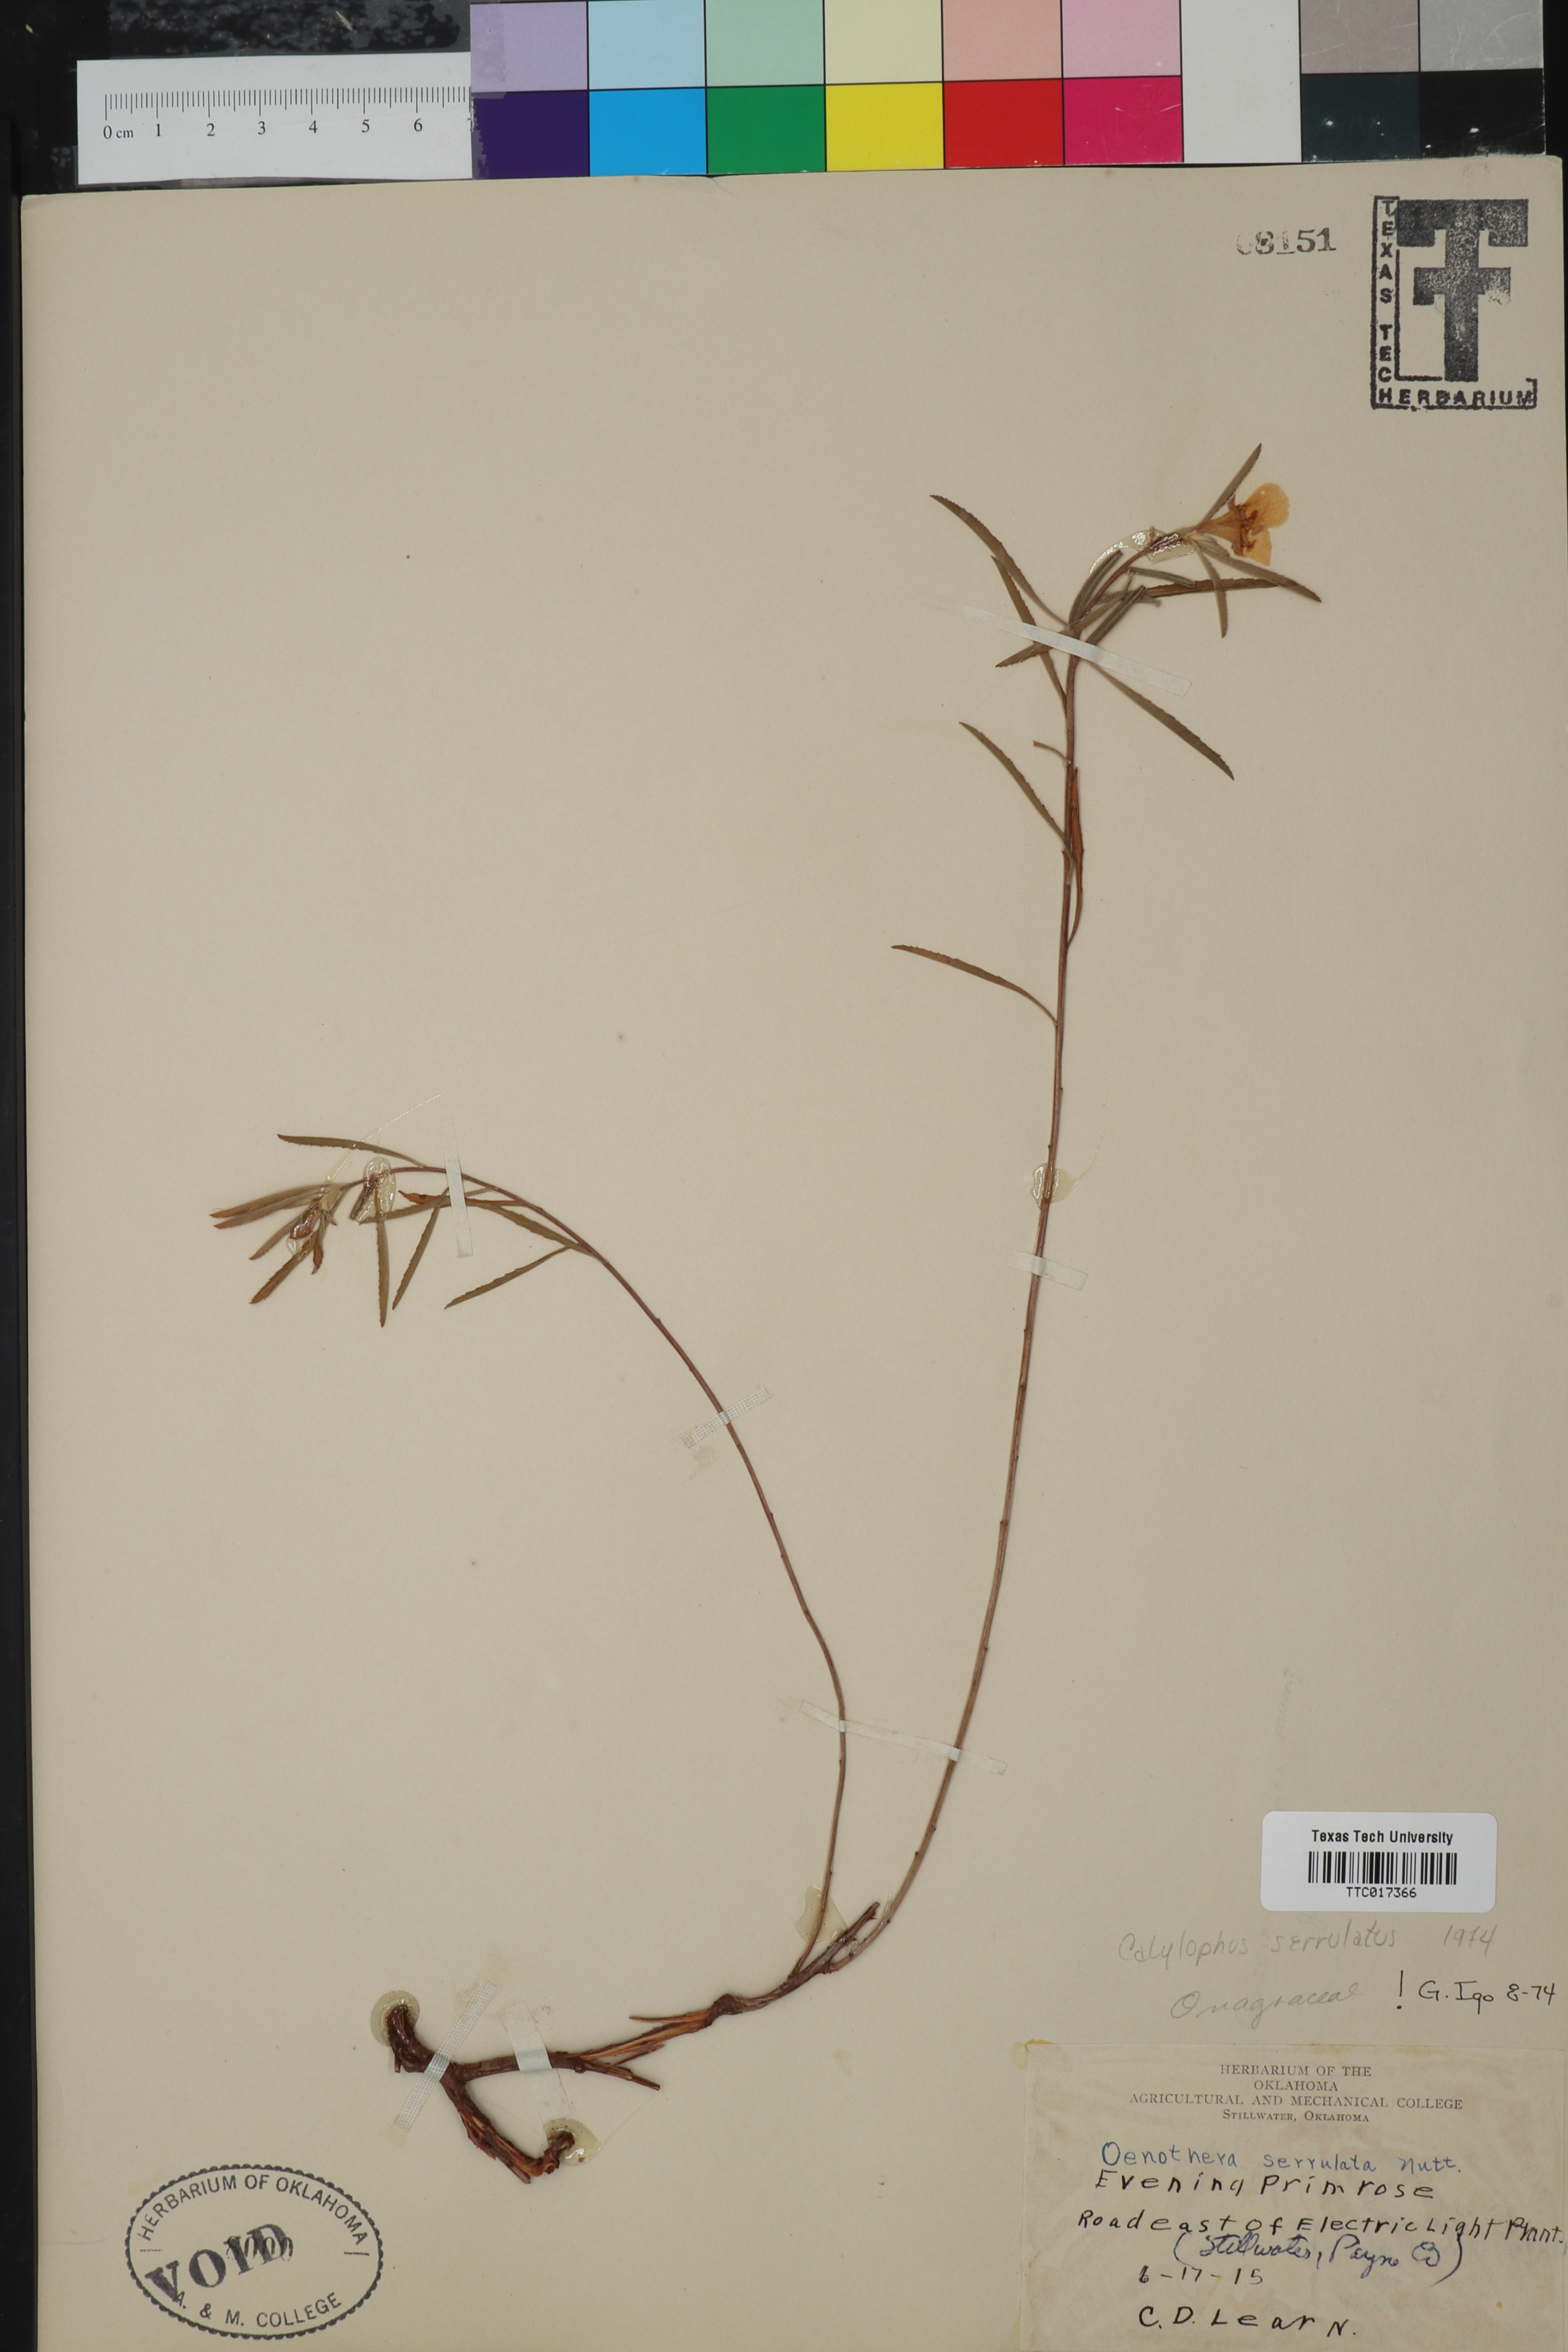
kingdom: Plantae
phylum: Tracheophyta
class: Magnoliopsida
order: Myrtales
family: Onagraceae
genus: Epilobium
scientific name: Epilobium
